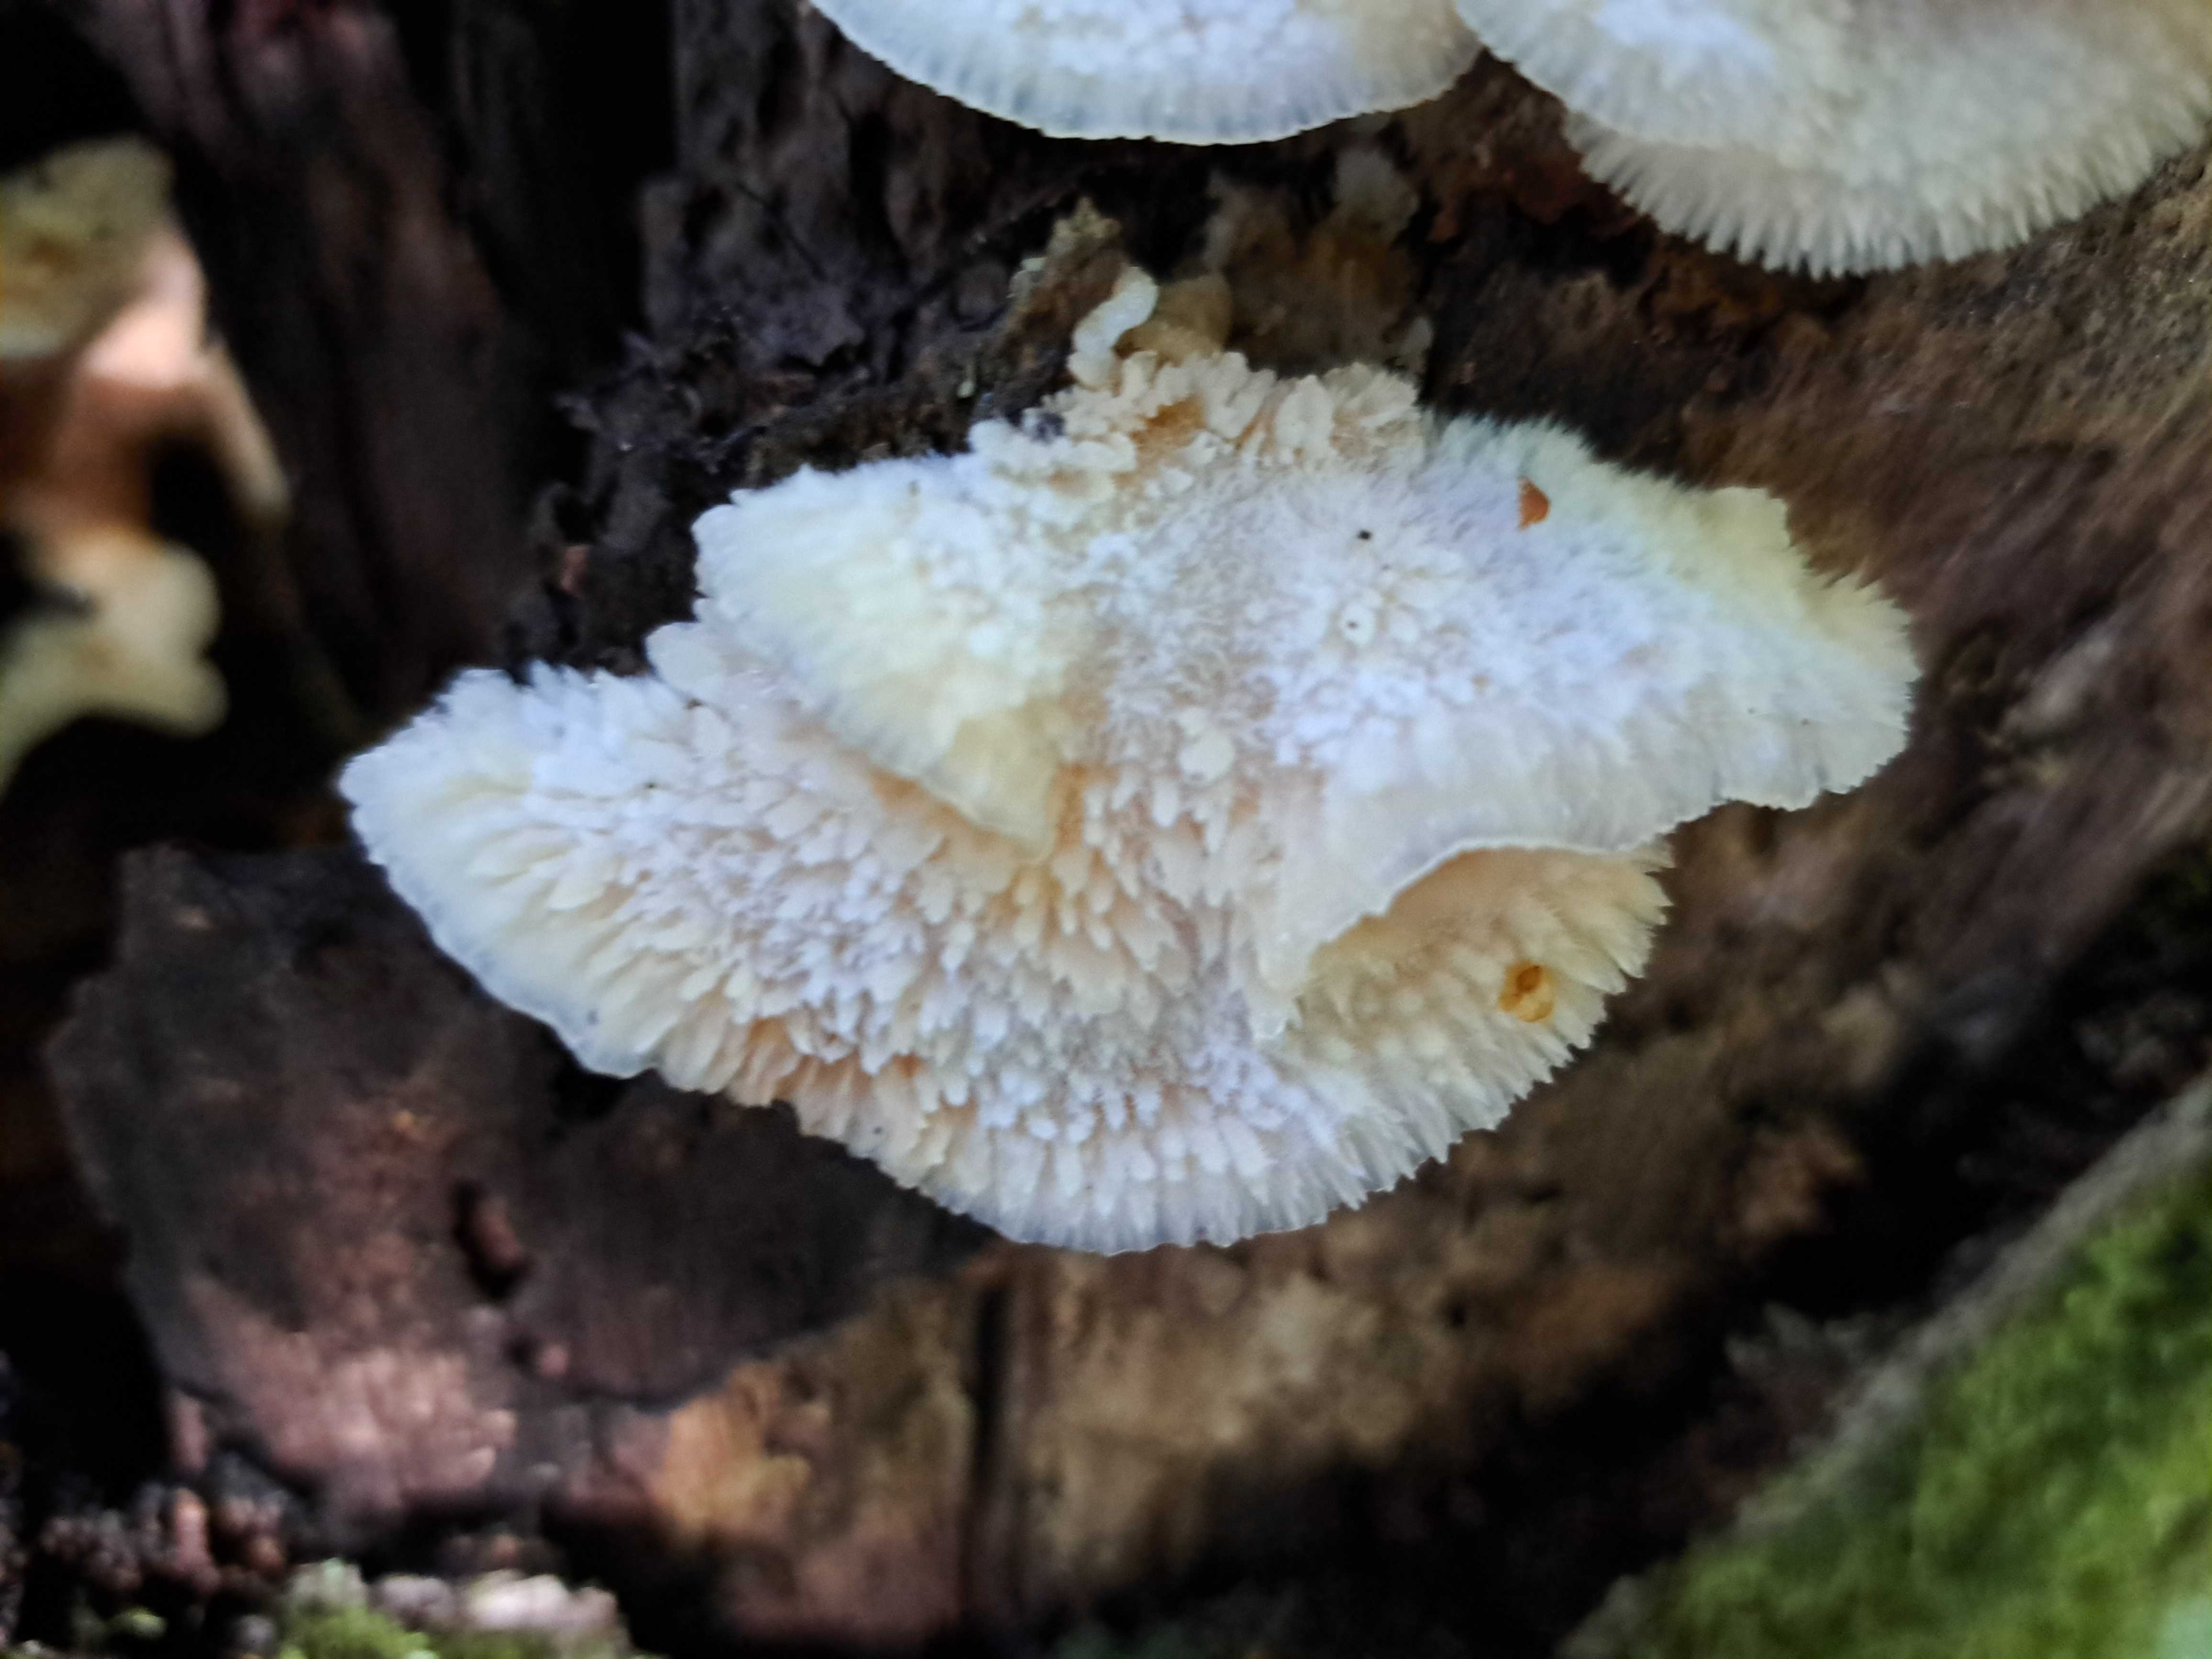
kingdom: Fungi
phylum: Basidiomycota
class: Agaricomycetes
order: Polyporales
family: Meruliaceae
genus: Phlebia
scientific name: Phlebia tremellosa
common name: bævrende åresvamp
